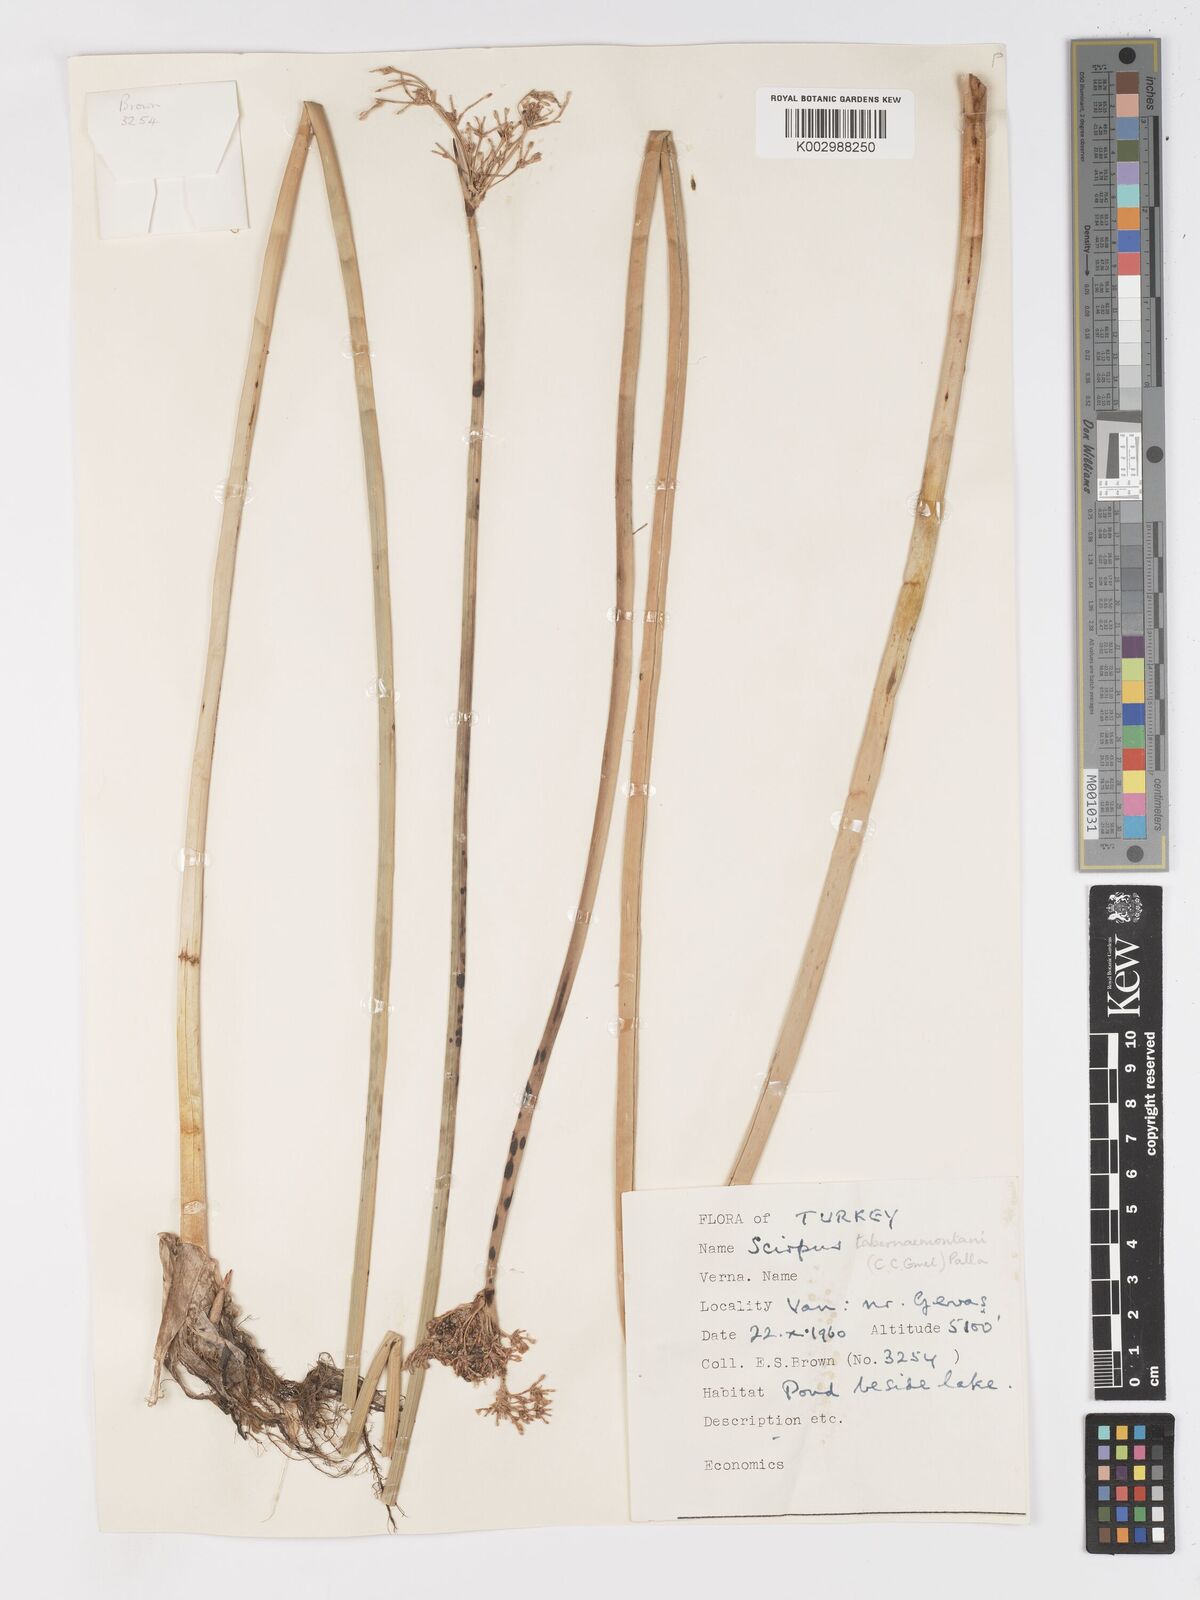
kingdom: Plantae
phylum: Tracheophyta
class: Liliopsida
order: Poales
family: Cyperaceae
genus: Schoenoplectus
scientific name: Schoenoplectus tabernaemontani
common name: Grey club-rush
